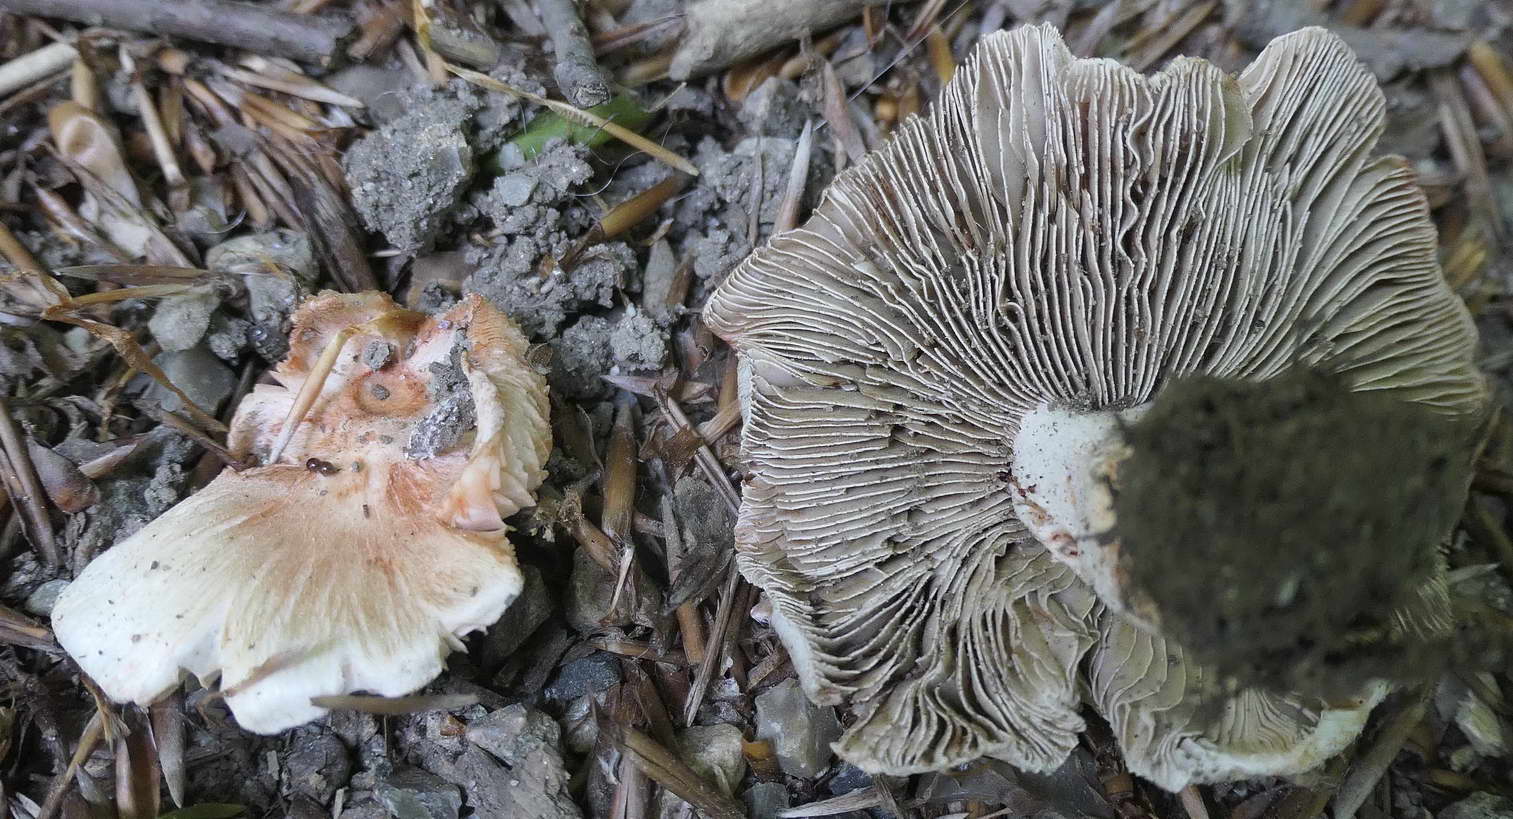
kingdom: Fungi
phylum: Basidiomycota
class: Agaricomycetes
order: Agaricales
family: Inocybaceae
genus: Inosperma
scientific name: Inosperma erubescens
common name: giftig trævlhat
